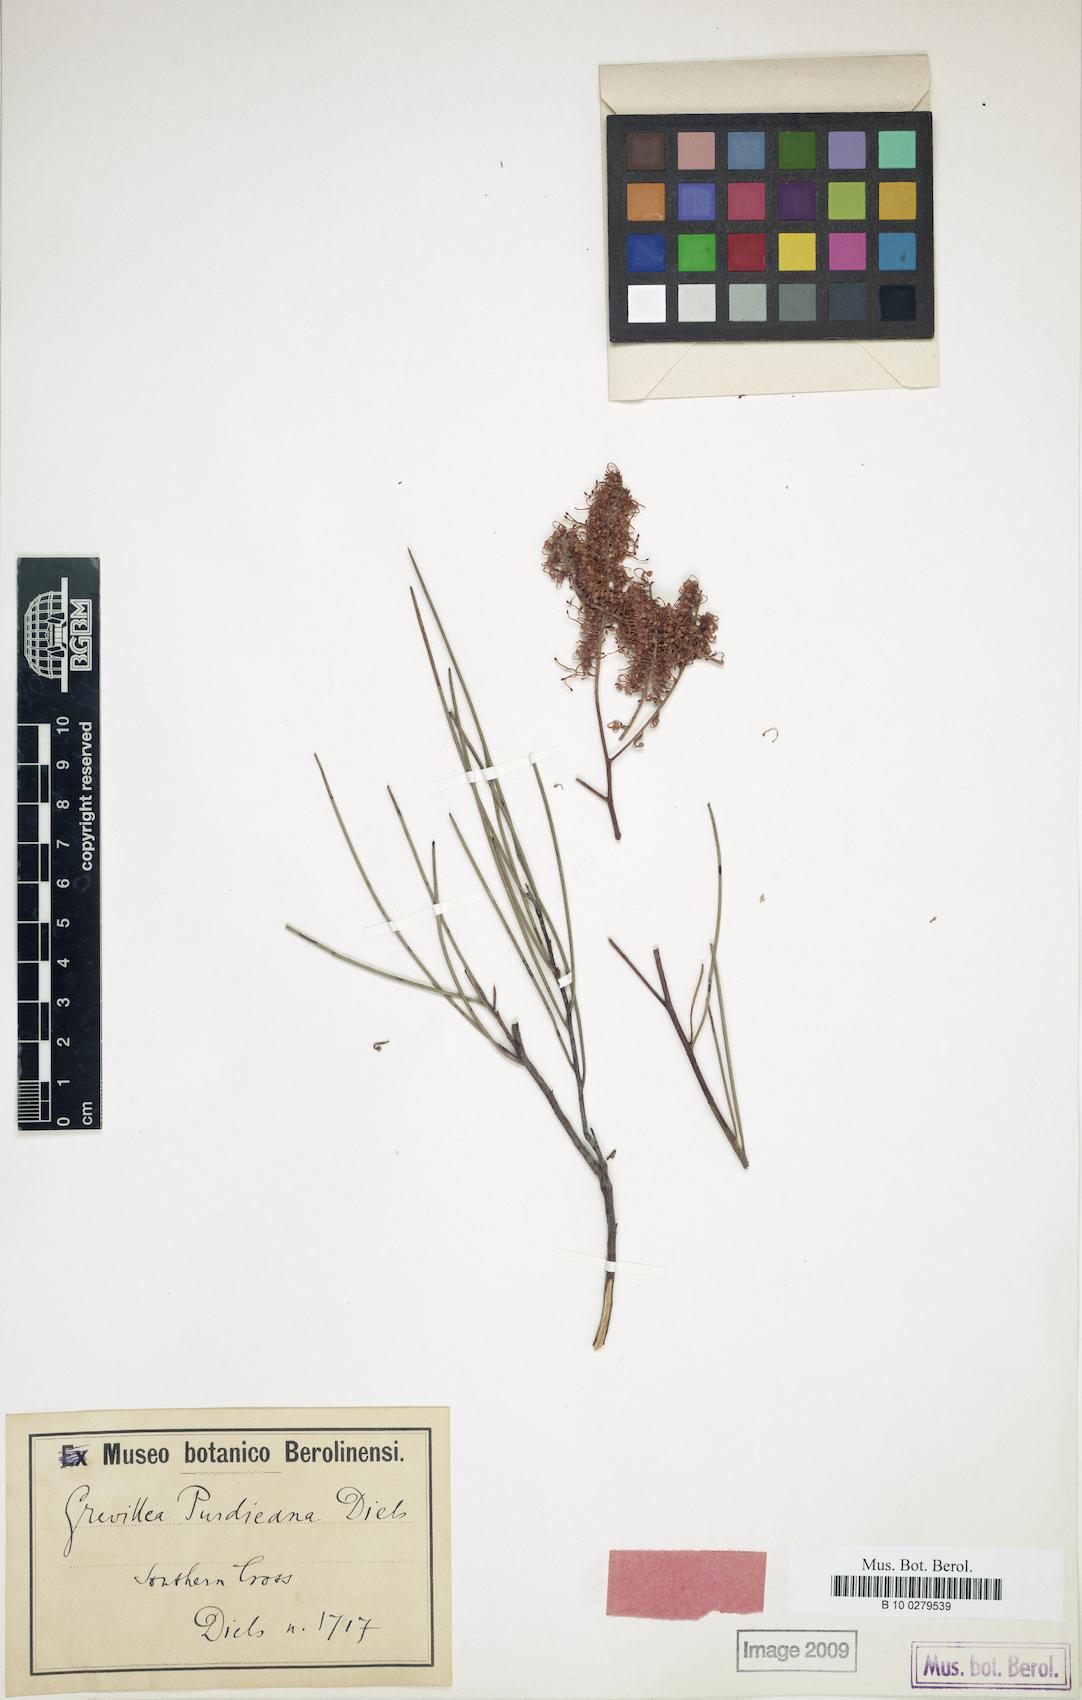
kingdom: Plantae
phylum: Tracheophyta
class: Magnoliopsida
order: Proteales
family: Proteaceae
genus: Grevillea
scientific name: Grevillea nematophylla
